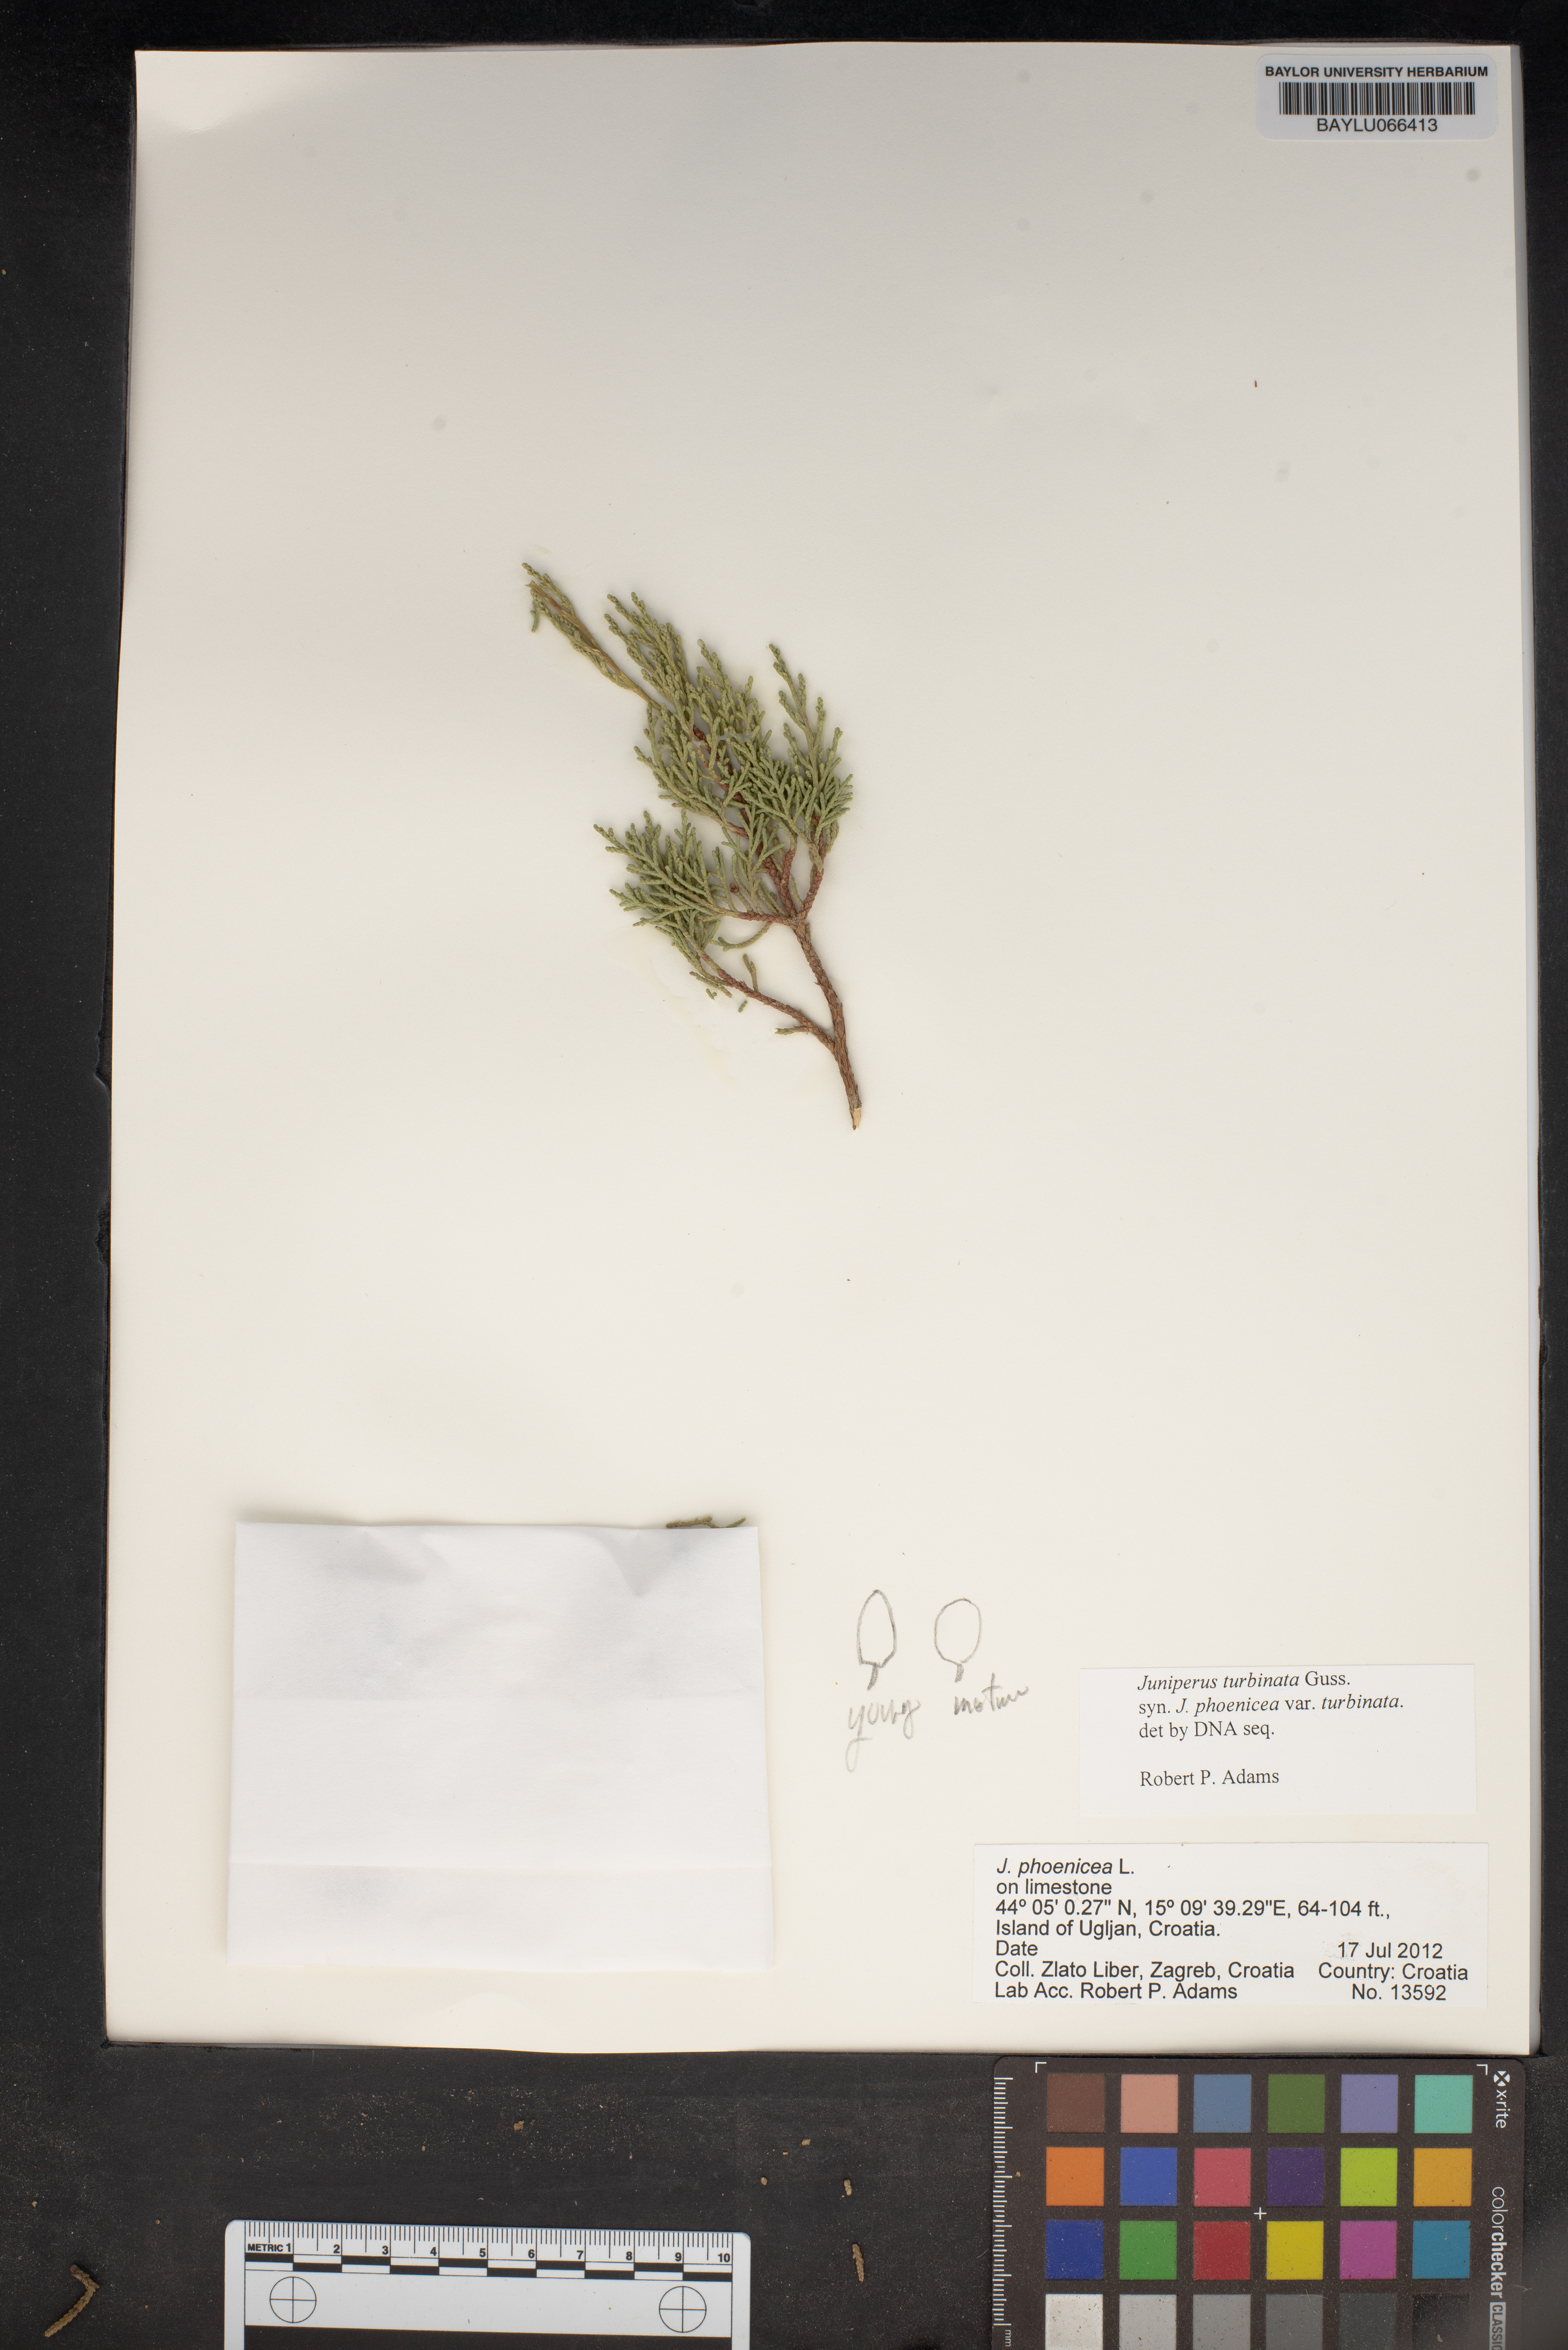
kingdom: Plantae
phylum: Tracheophyta
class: Pinopsida
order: Pinales
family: Cupressaceae
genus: Juniperus
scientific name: Juniperus phoenicea
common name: Phoenician juniper
